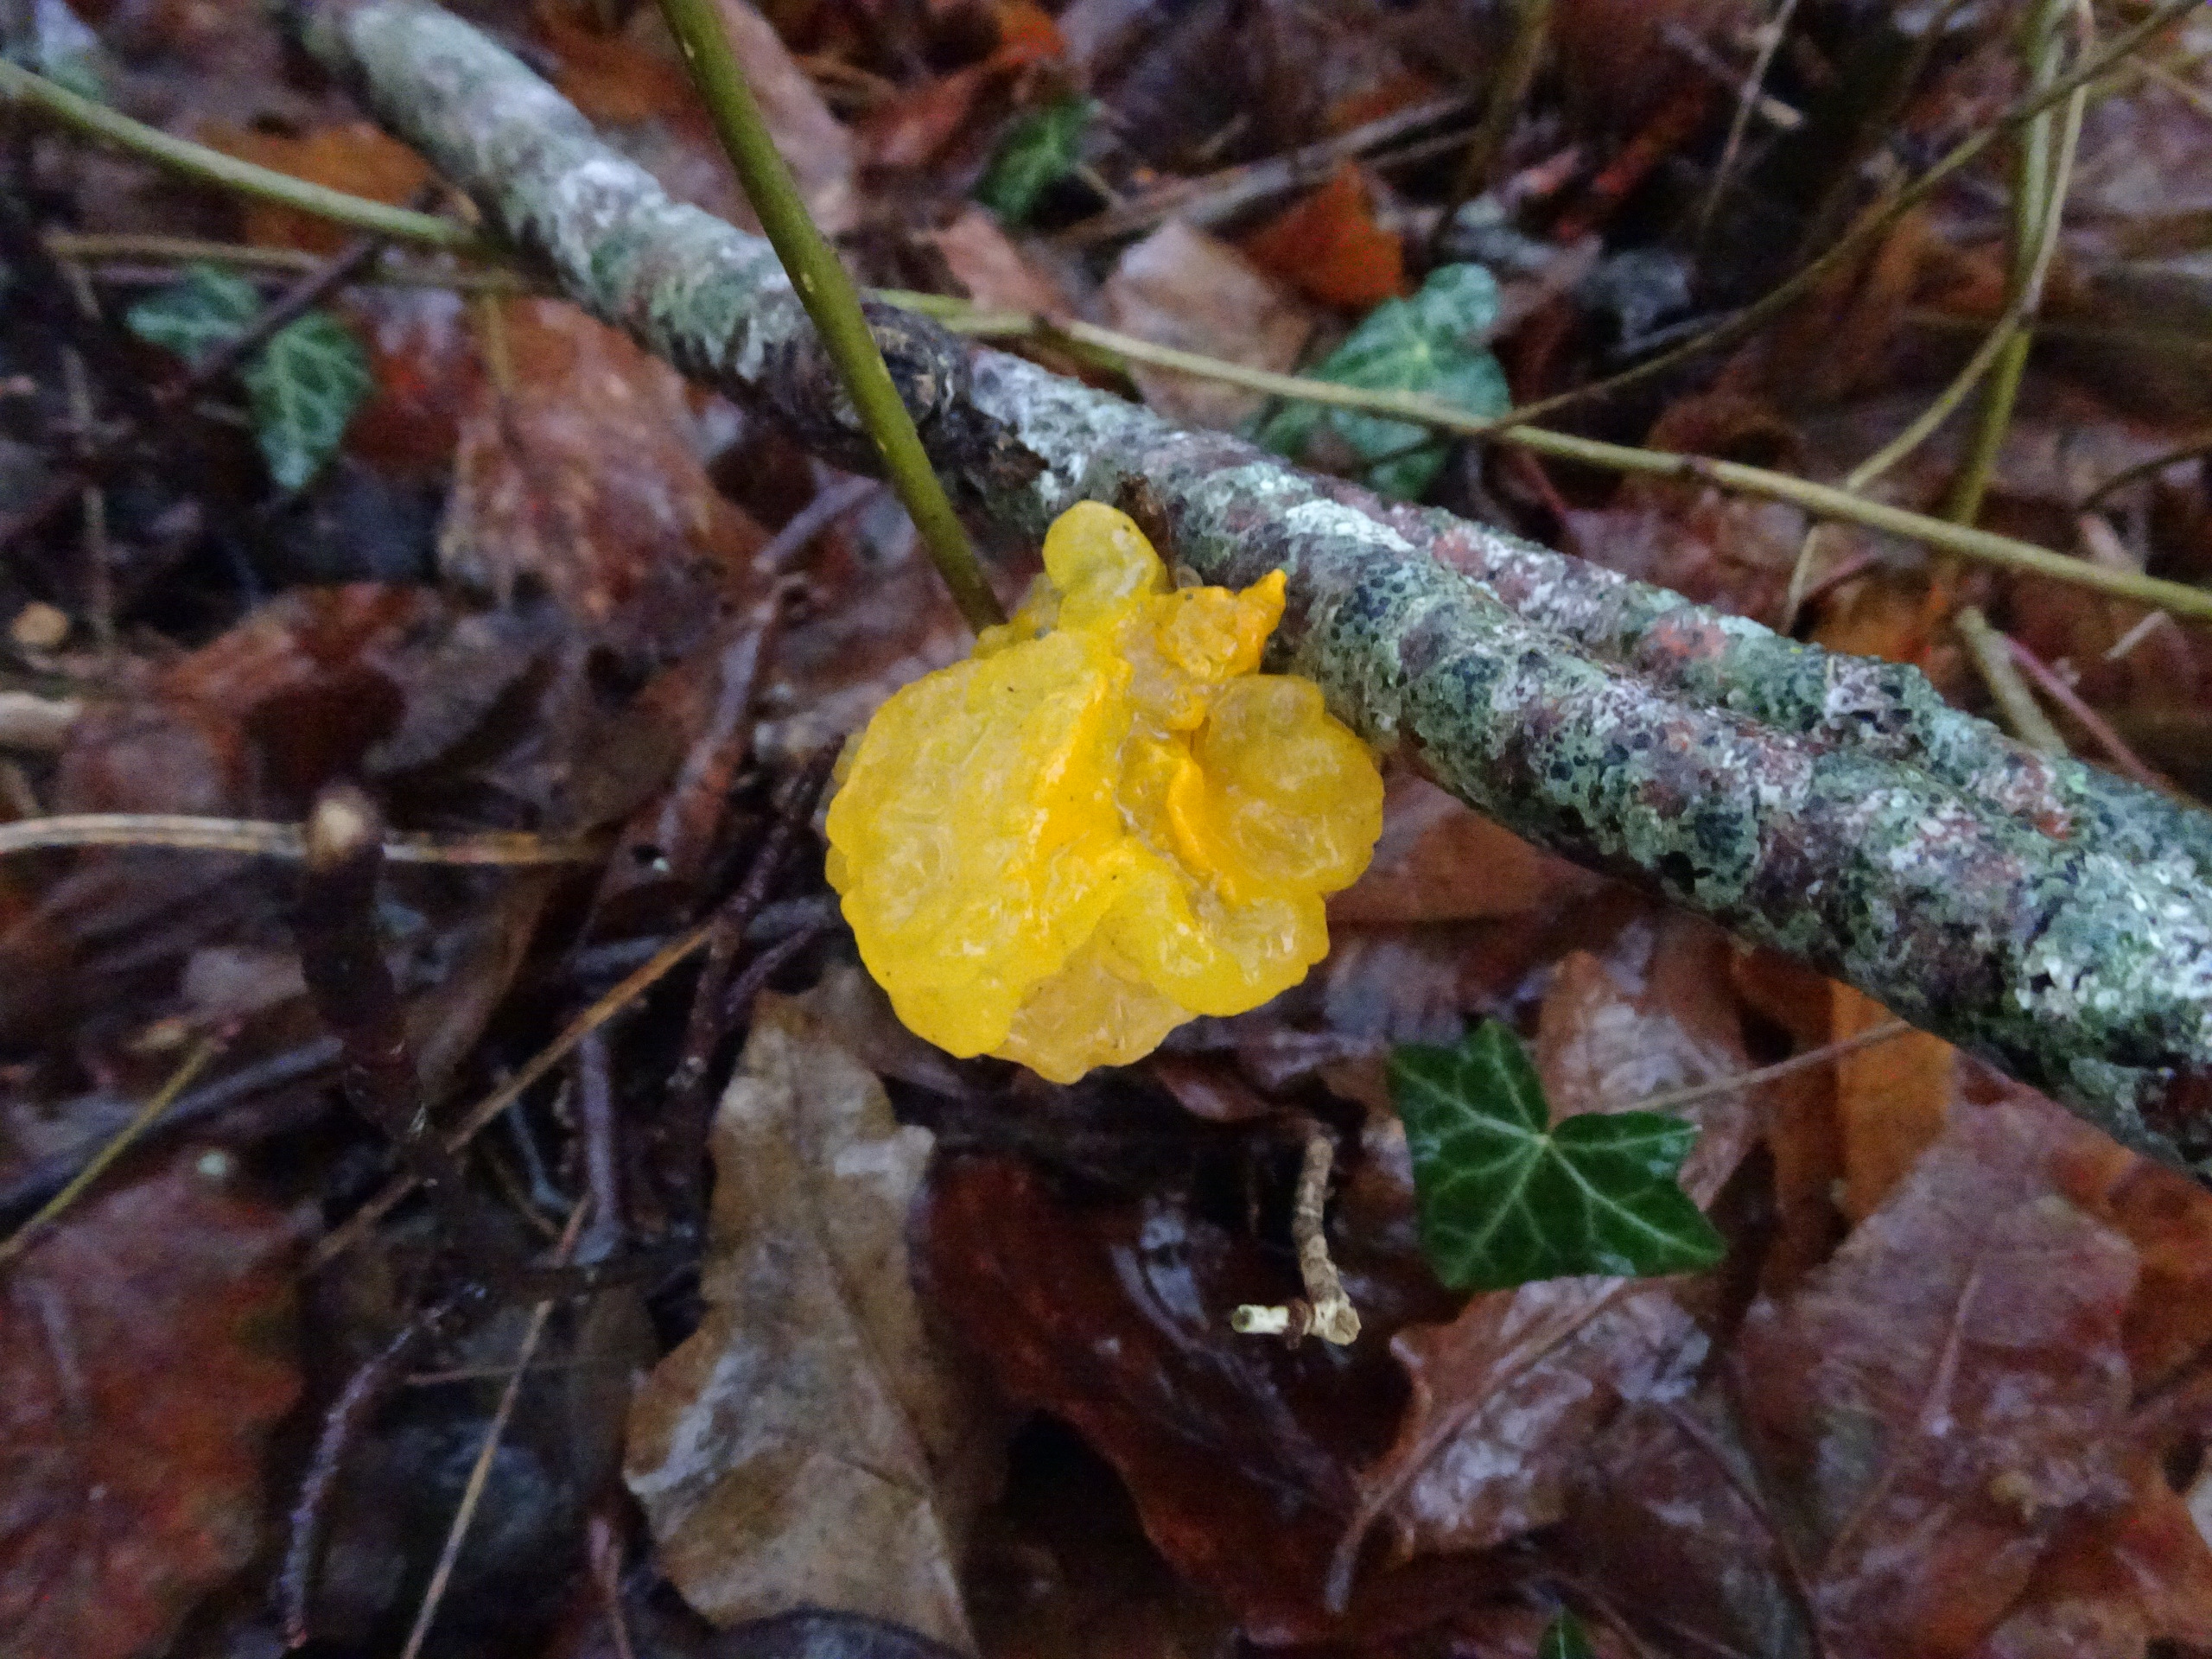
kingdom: Fungi
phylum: Basidiomycota
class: Tremellomycetes
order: Tremellales
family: Tremellaceae
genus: Tremella
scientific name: Tremella mesenterica
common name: Gul bævresvamp
